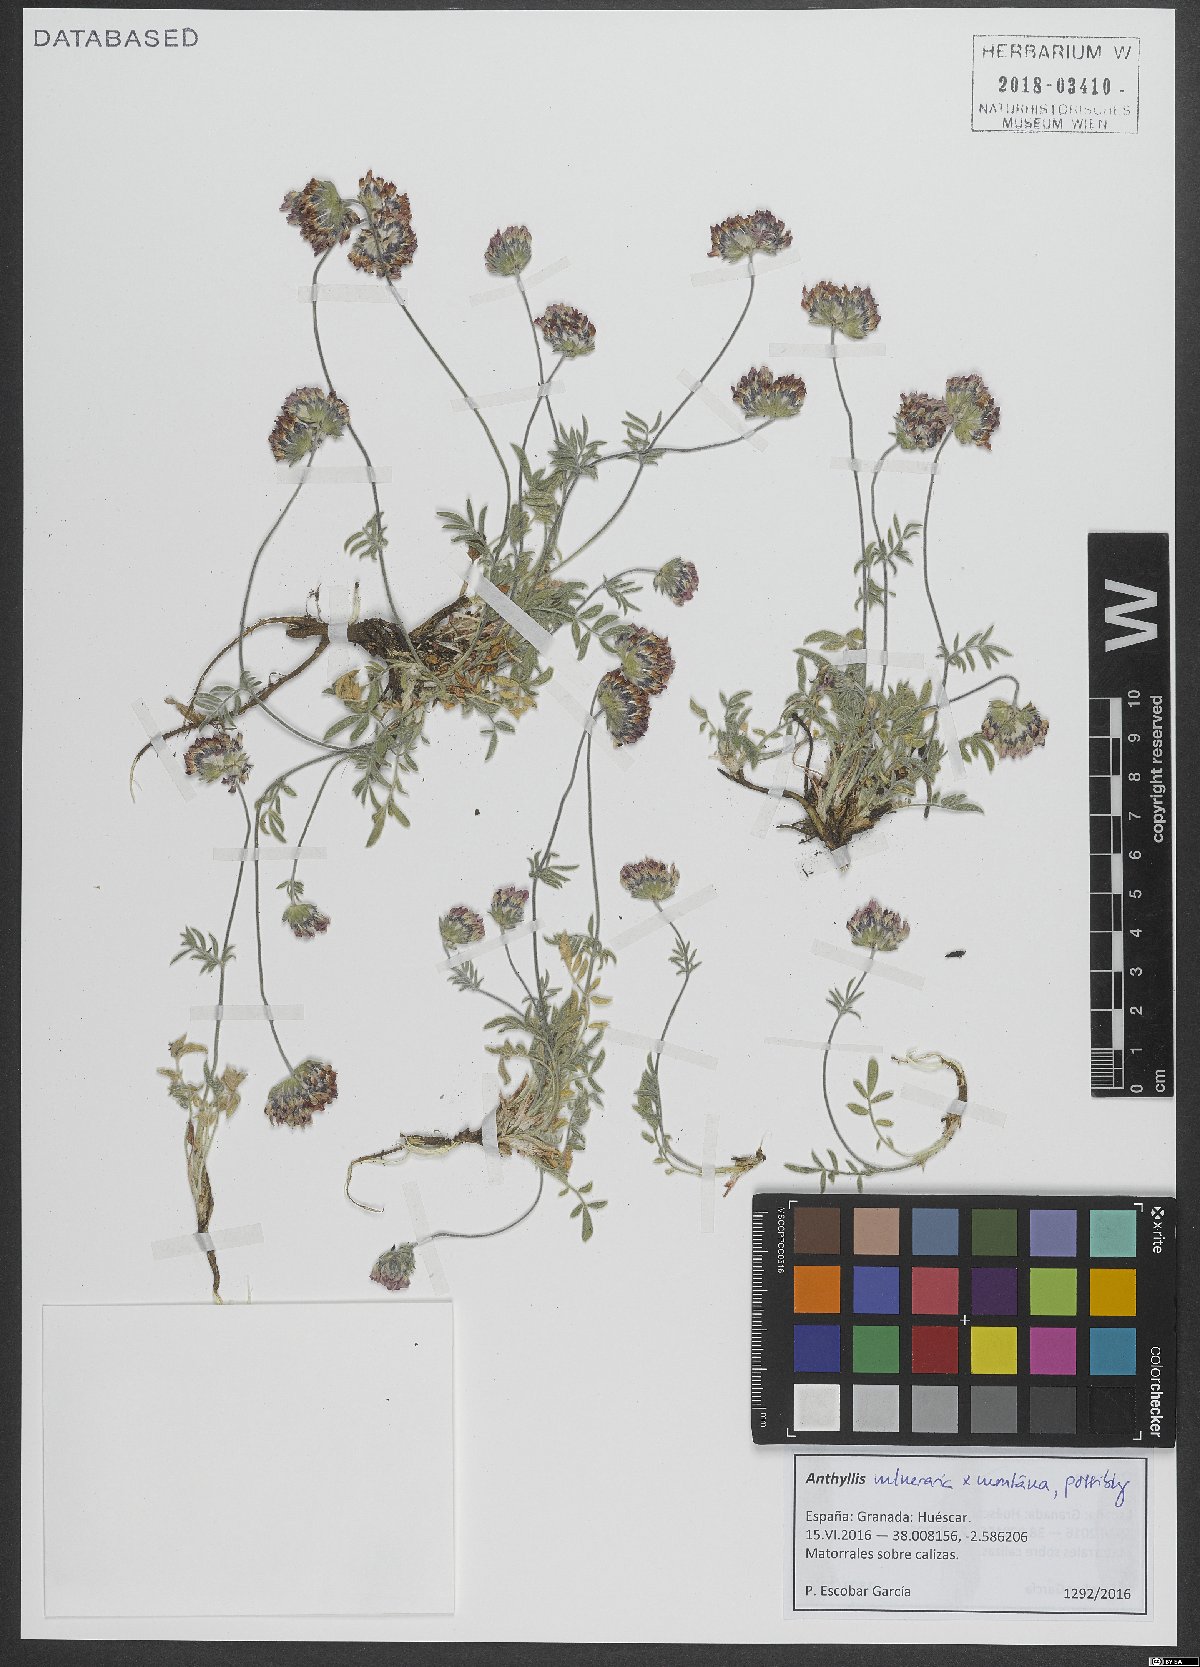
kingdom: Plantae
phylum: Tracheophyta
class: Magnoliopsida
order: Fabales
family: Fabaceae
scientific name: Fabaceae
